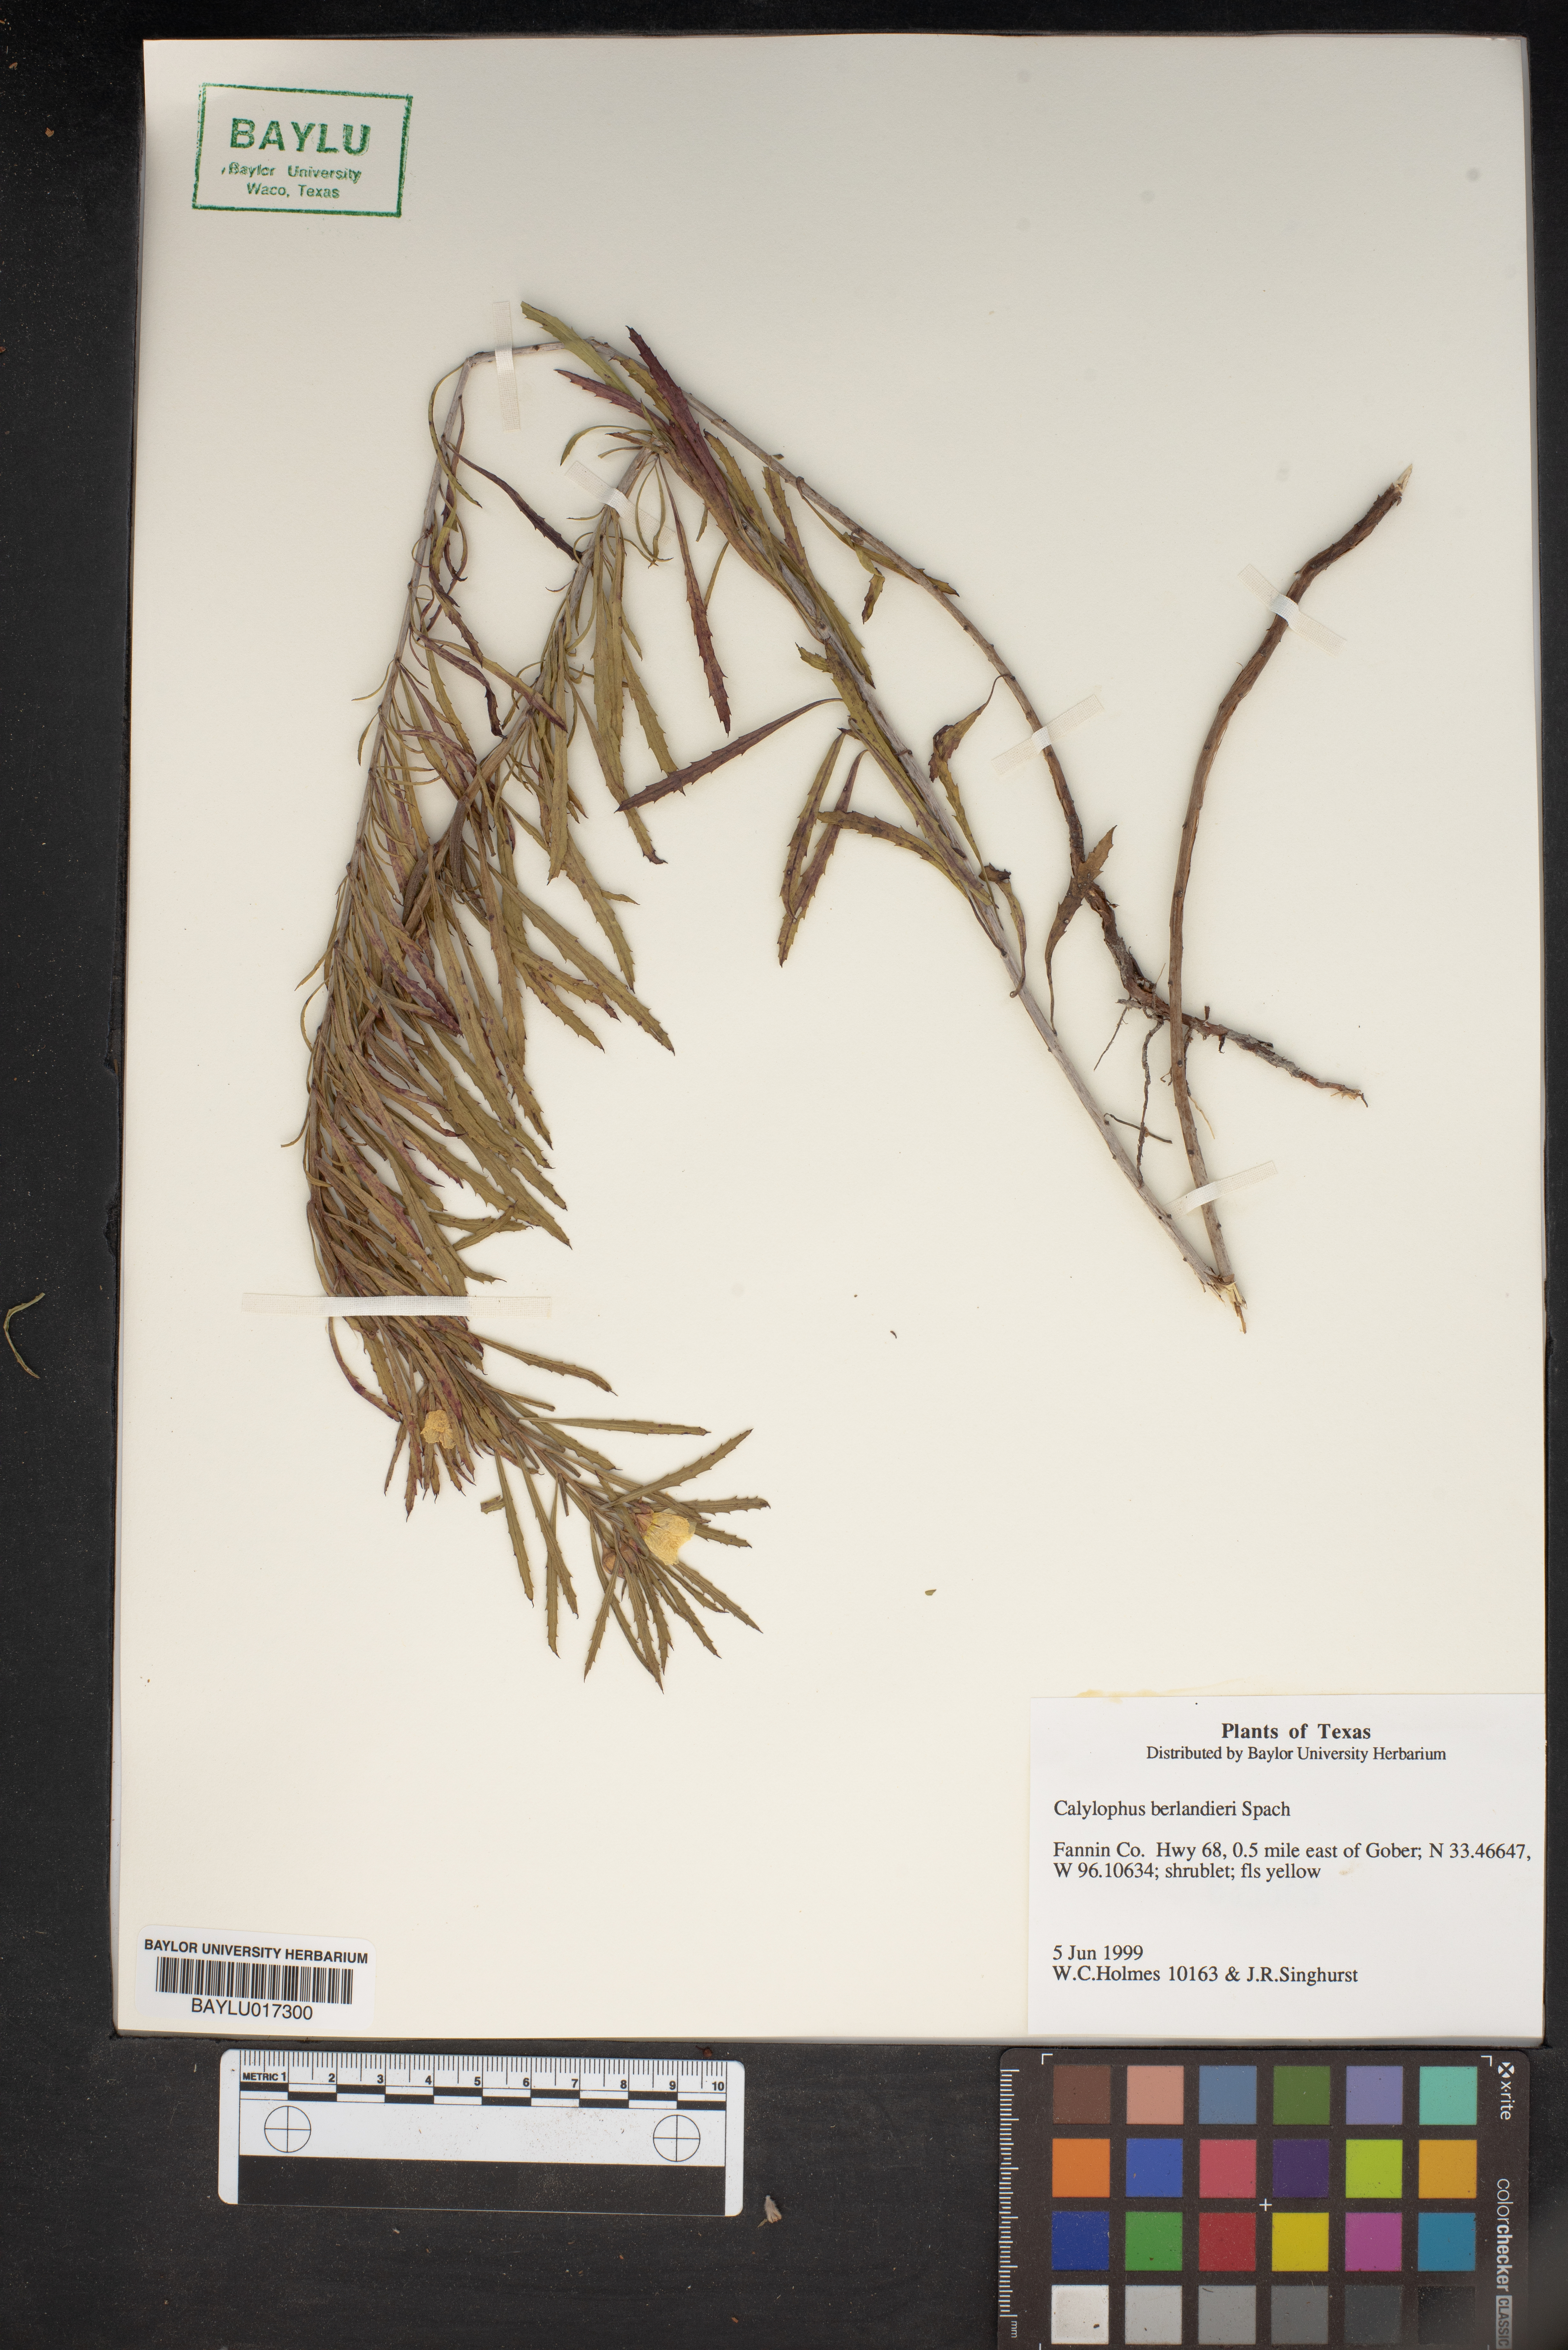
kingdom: Plantae
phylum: Tracheophyta
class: Magnoliopsida
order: Myrtales
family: Onagraceae
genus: Oenothera
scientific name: Oenothera capillifolia
